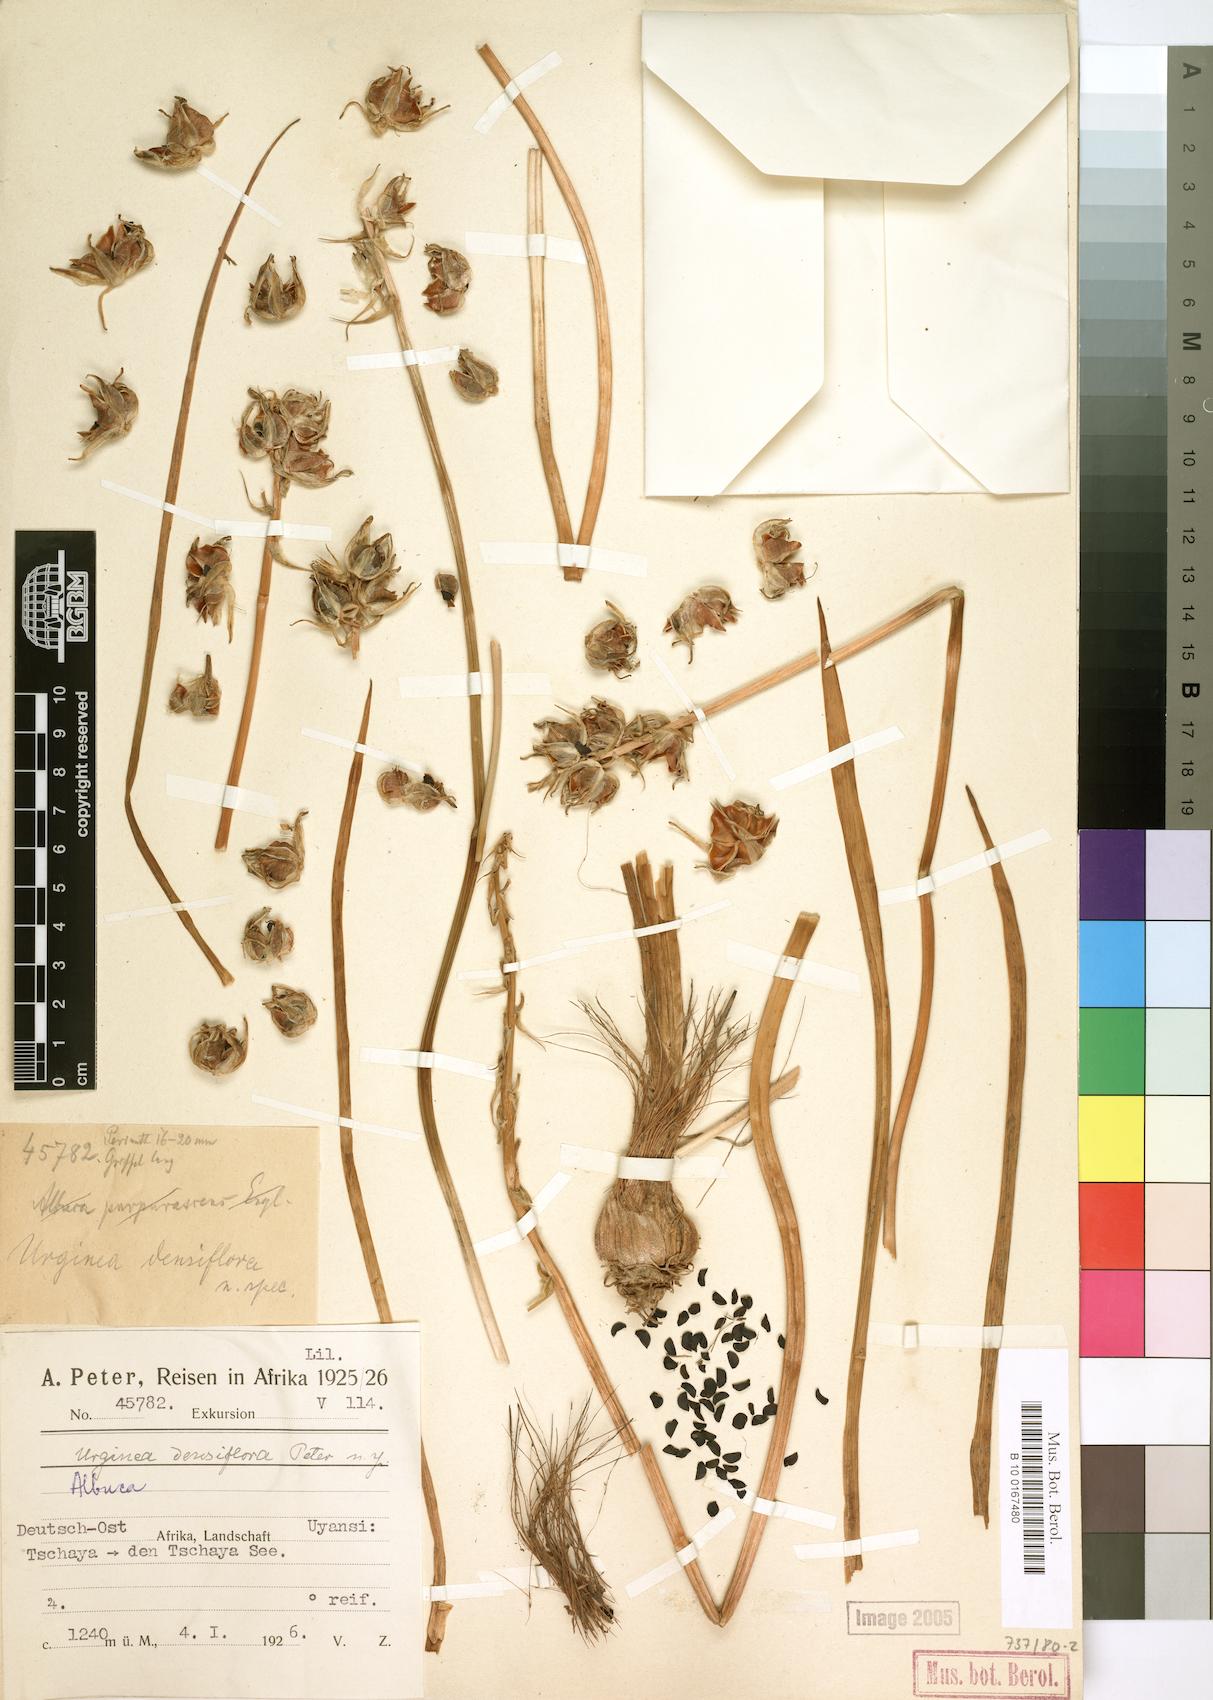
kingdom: Plantae
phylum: Tracheophyta
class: Liliopsida
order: Asparagales
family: Asparagaceae
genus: Drimia
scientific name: Drimia
